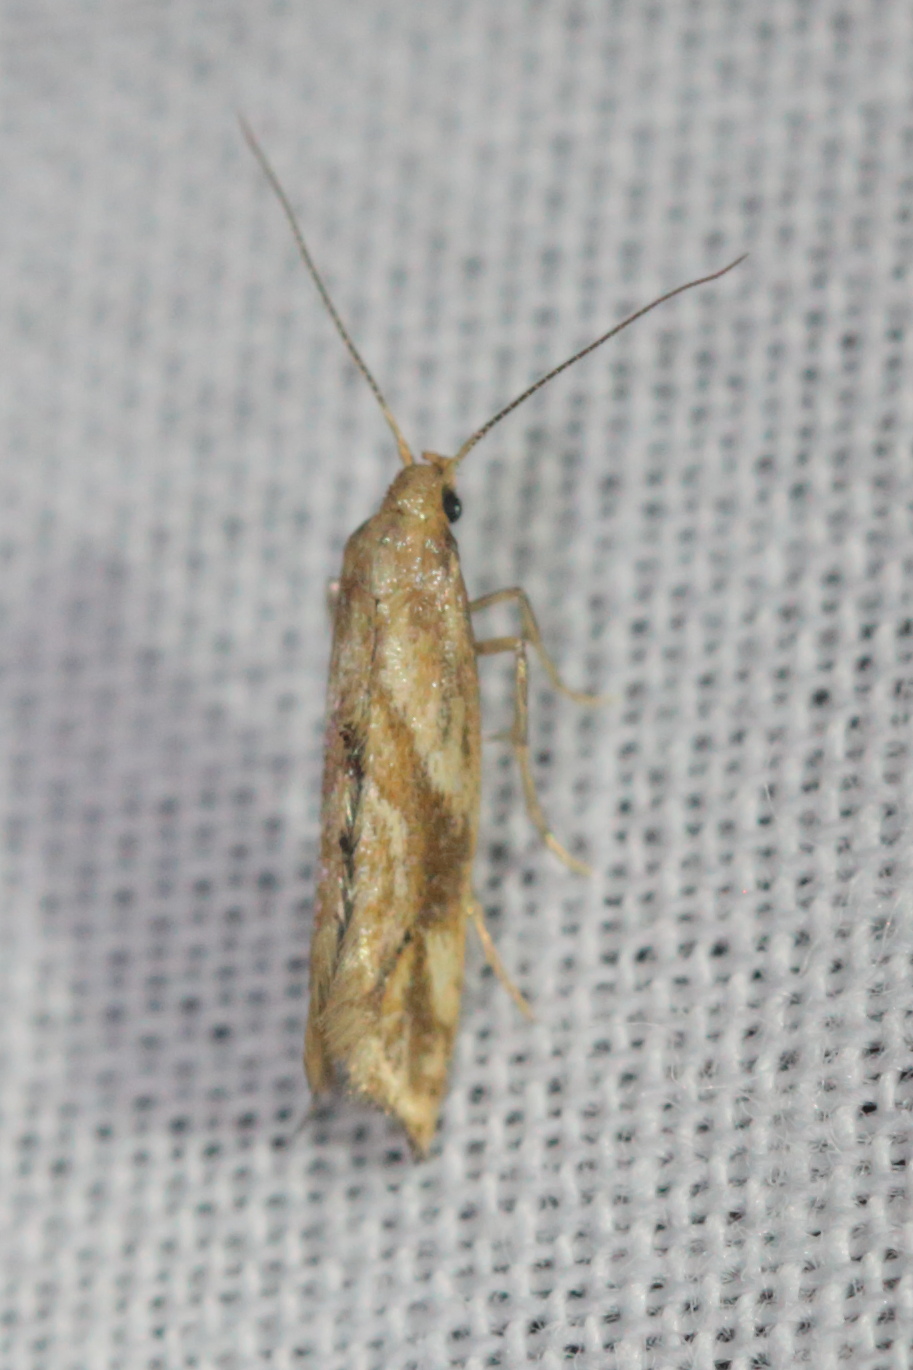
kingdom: Animalia
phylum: Arthropoda
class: Insecta
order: Lepidoptera
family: Epermeniidae
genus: Epermenia
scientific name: Epermenia illigerella
